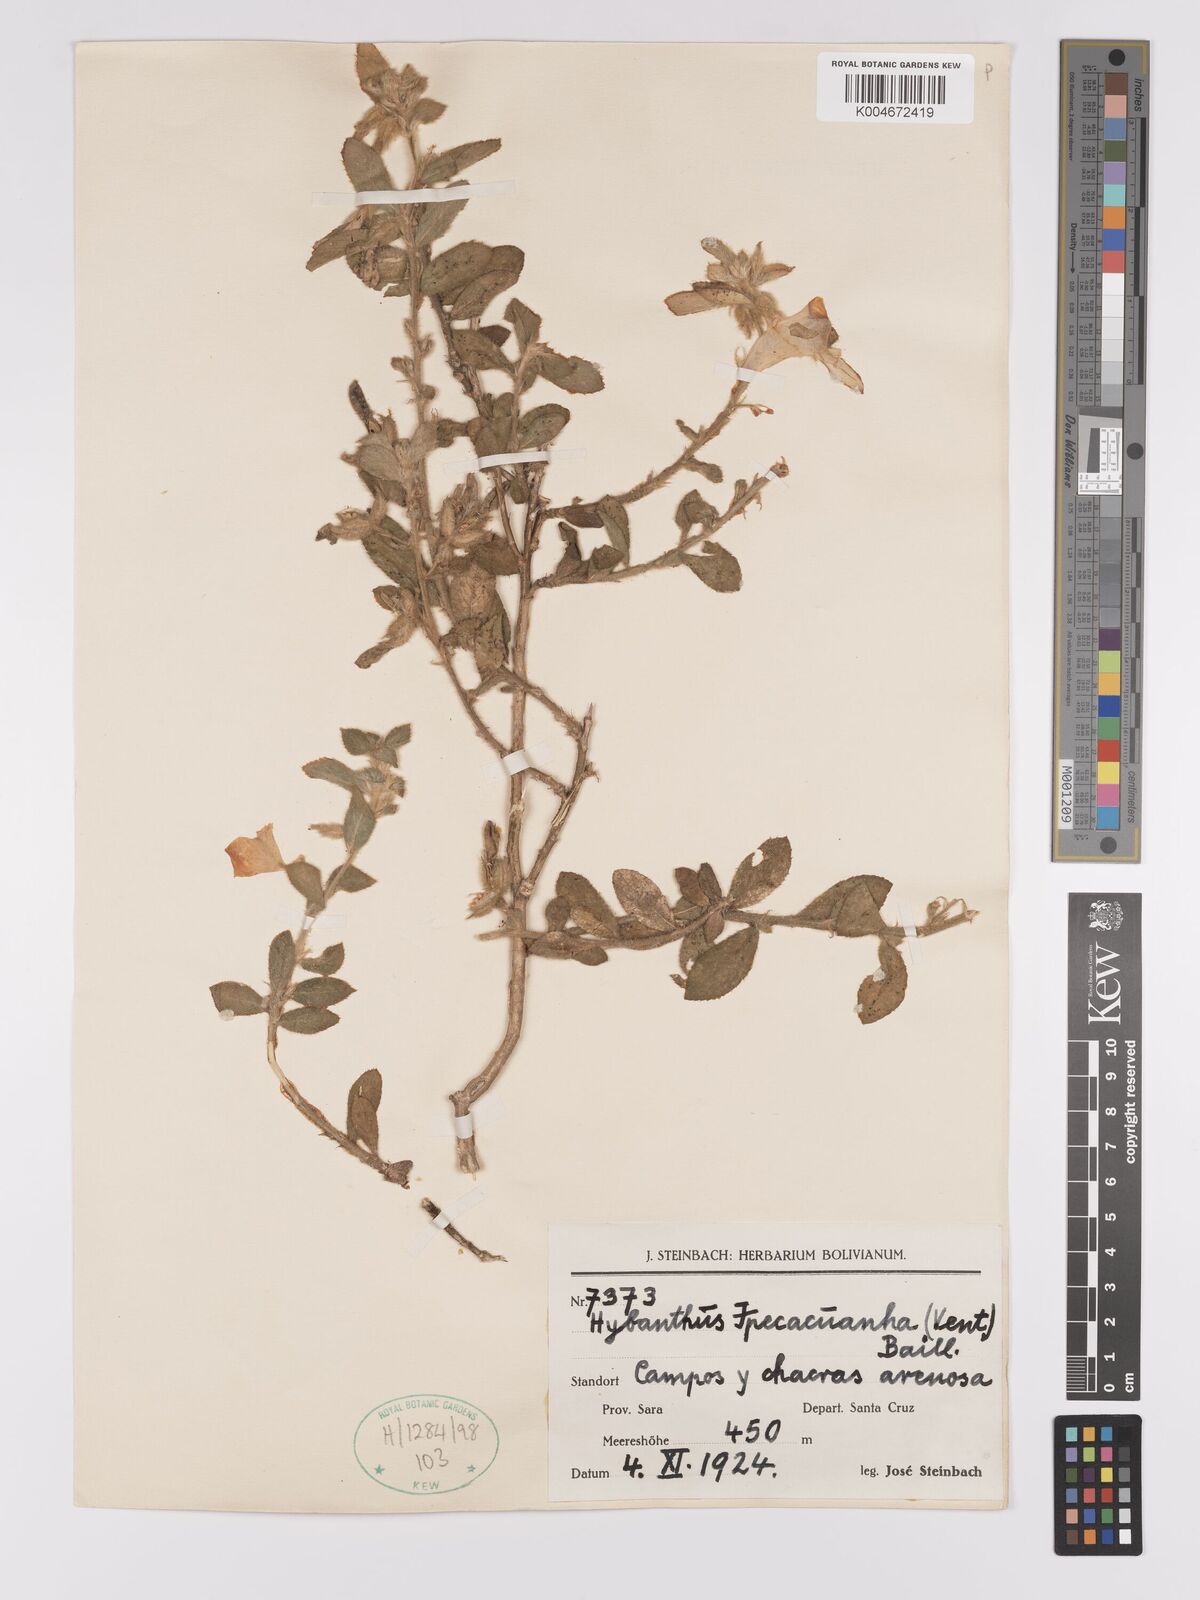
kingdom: Plantae
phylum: Tracheophyta
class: Magnoliopsida
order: Malpighiales
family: Violaceae
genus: Pombalia
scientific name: Pombalia calceolaria
